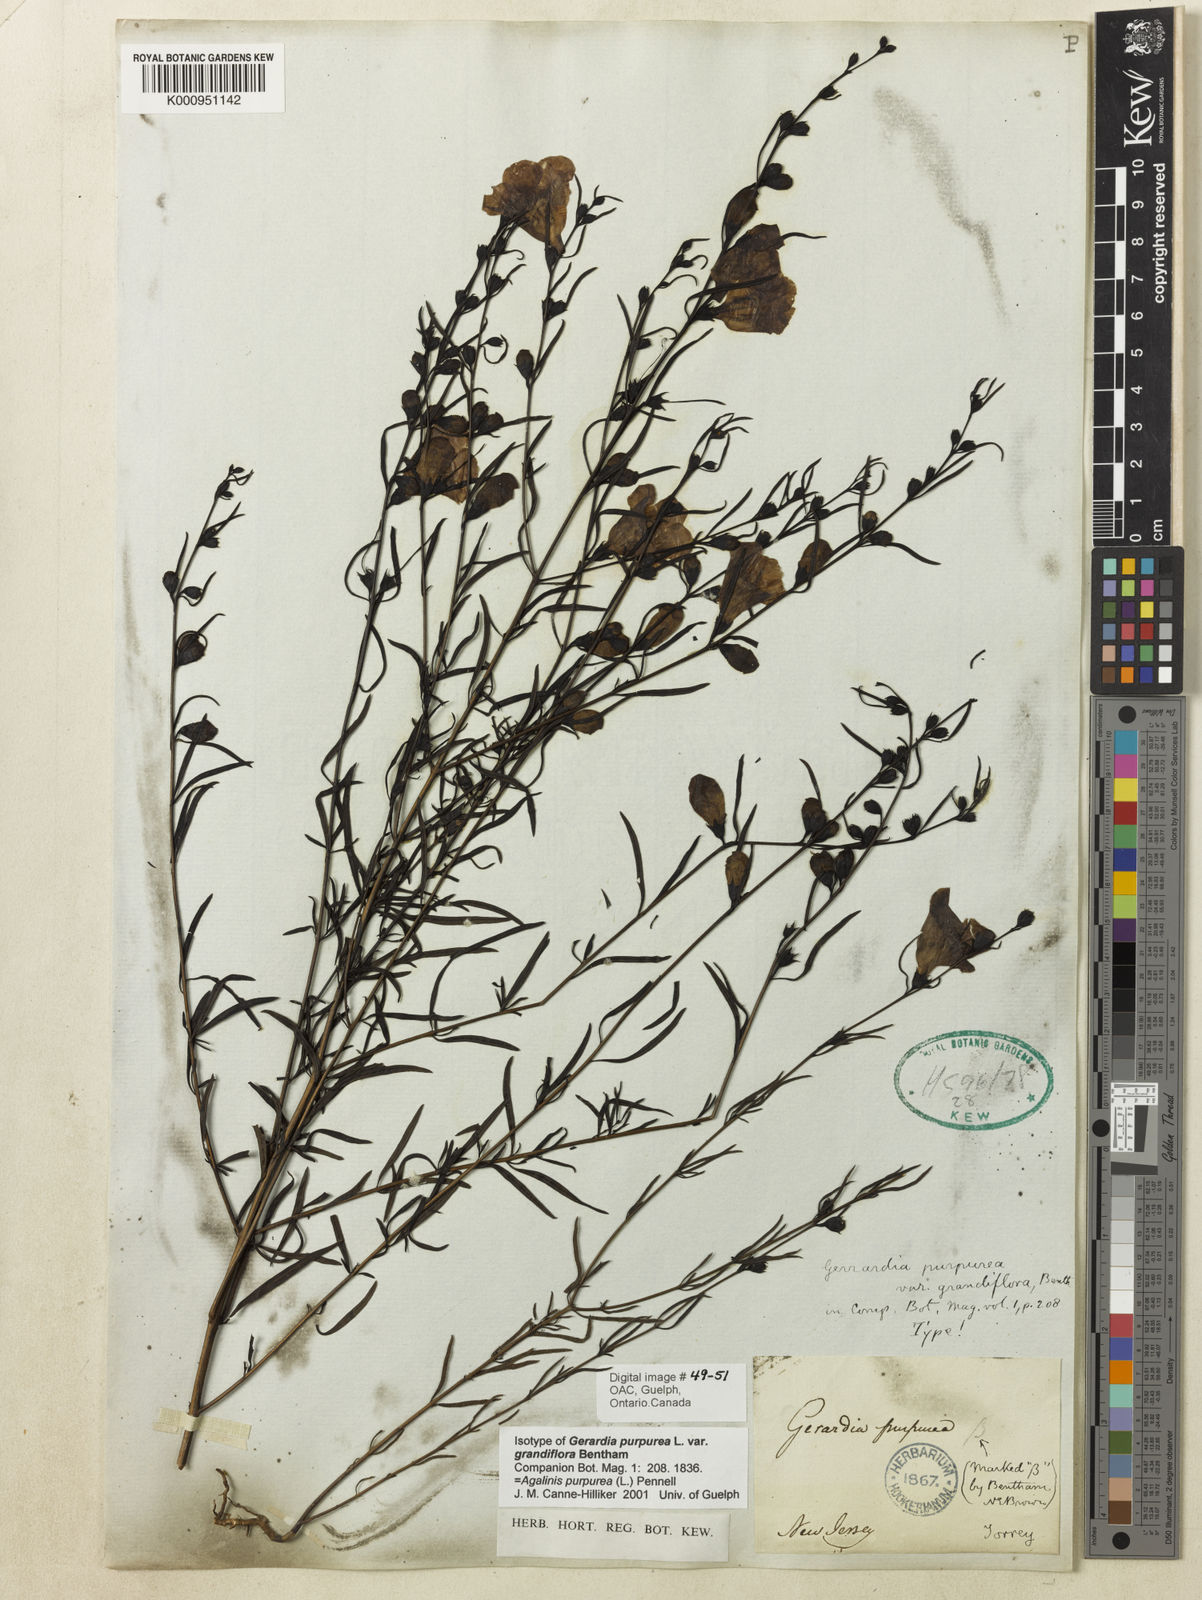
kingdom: Plantae
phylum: Tracheophyta
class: Magnoliopsida
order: Lamiales
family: Orobanchaceae
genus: Agalinis
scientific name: Agalinis purpurea
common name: Purple false foxglove
